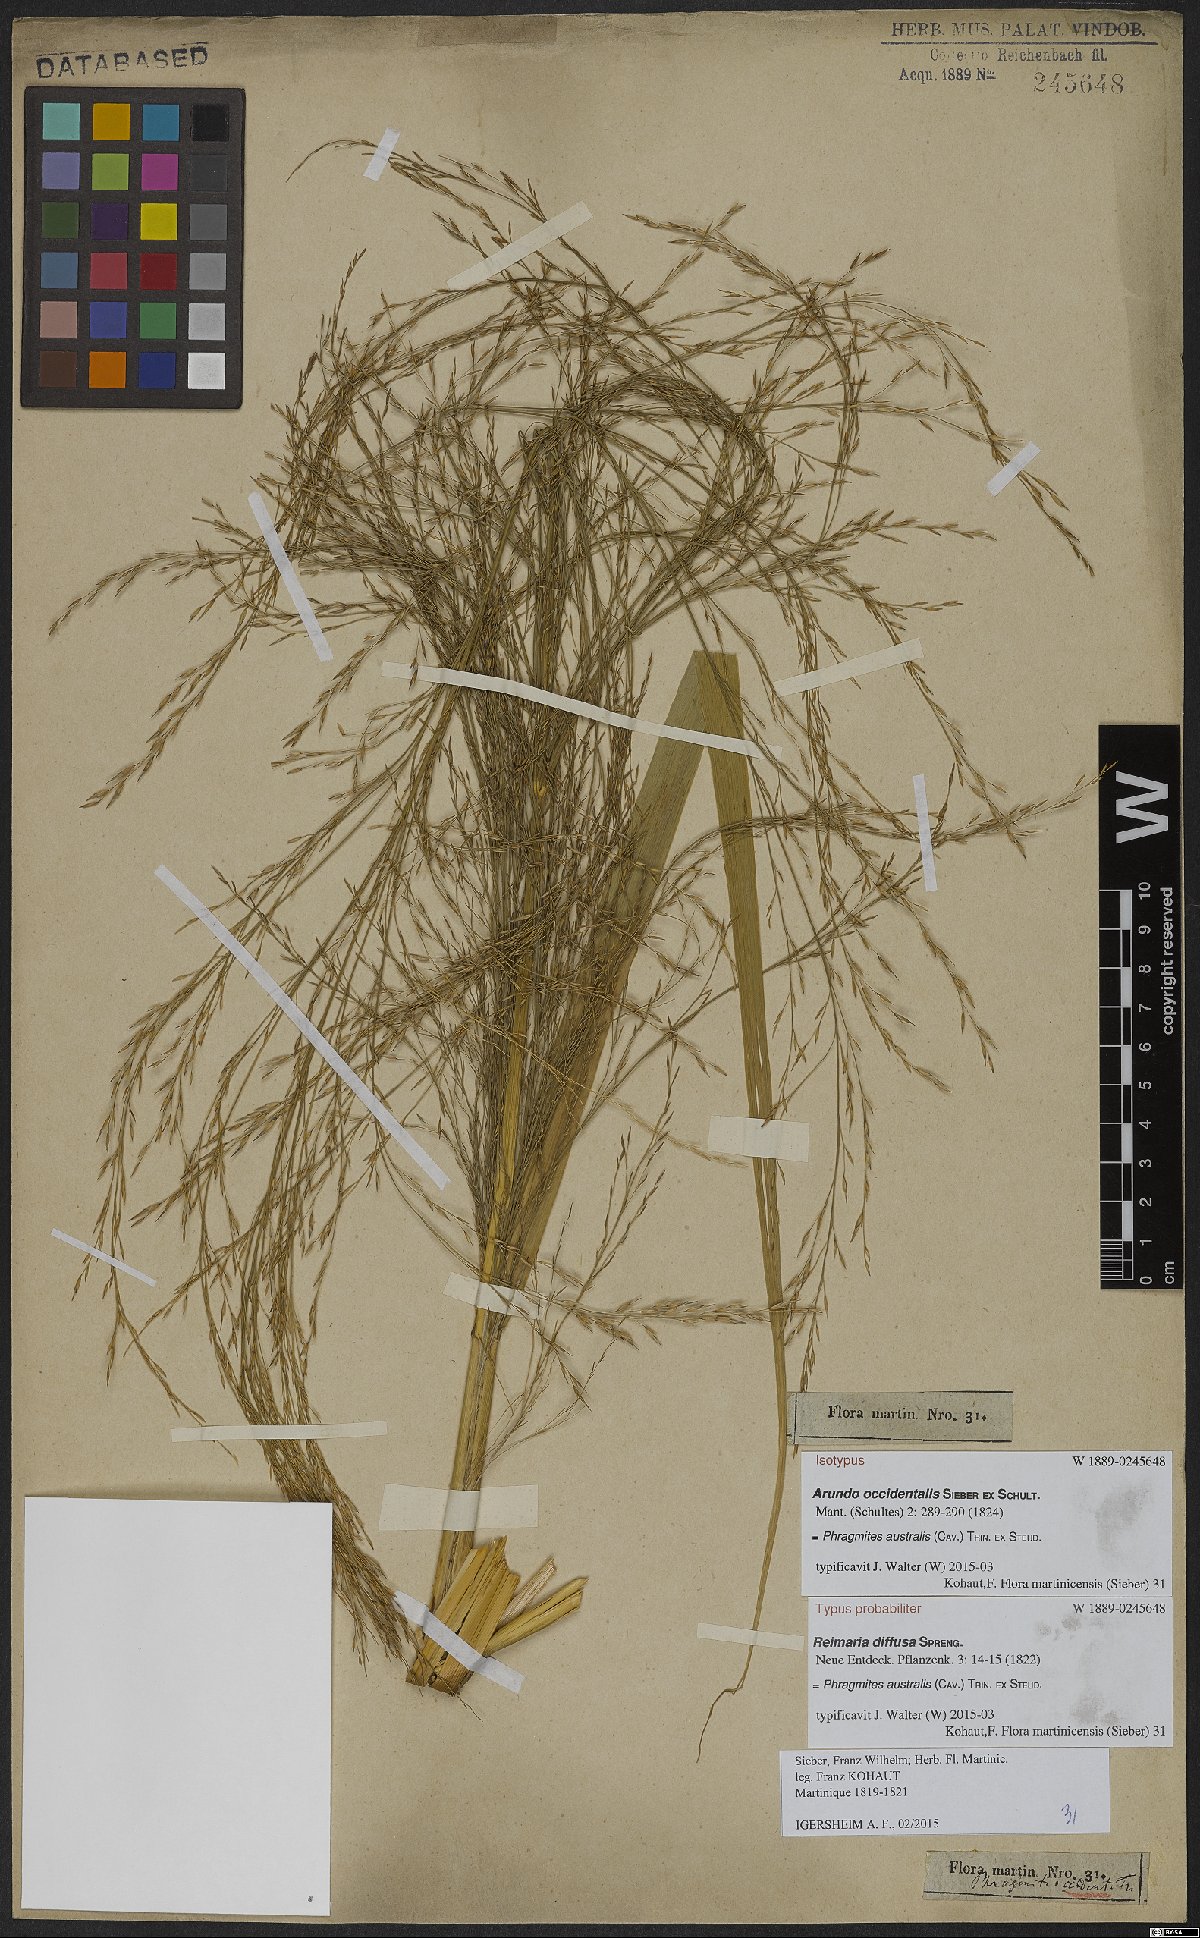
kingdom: Plantae
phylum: Tracheophyta
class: Liliopsida
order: Poales
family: Poaceae
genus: Phragmites
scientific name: Phragmites australis
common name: Common reed
